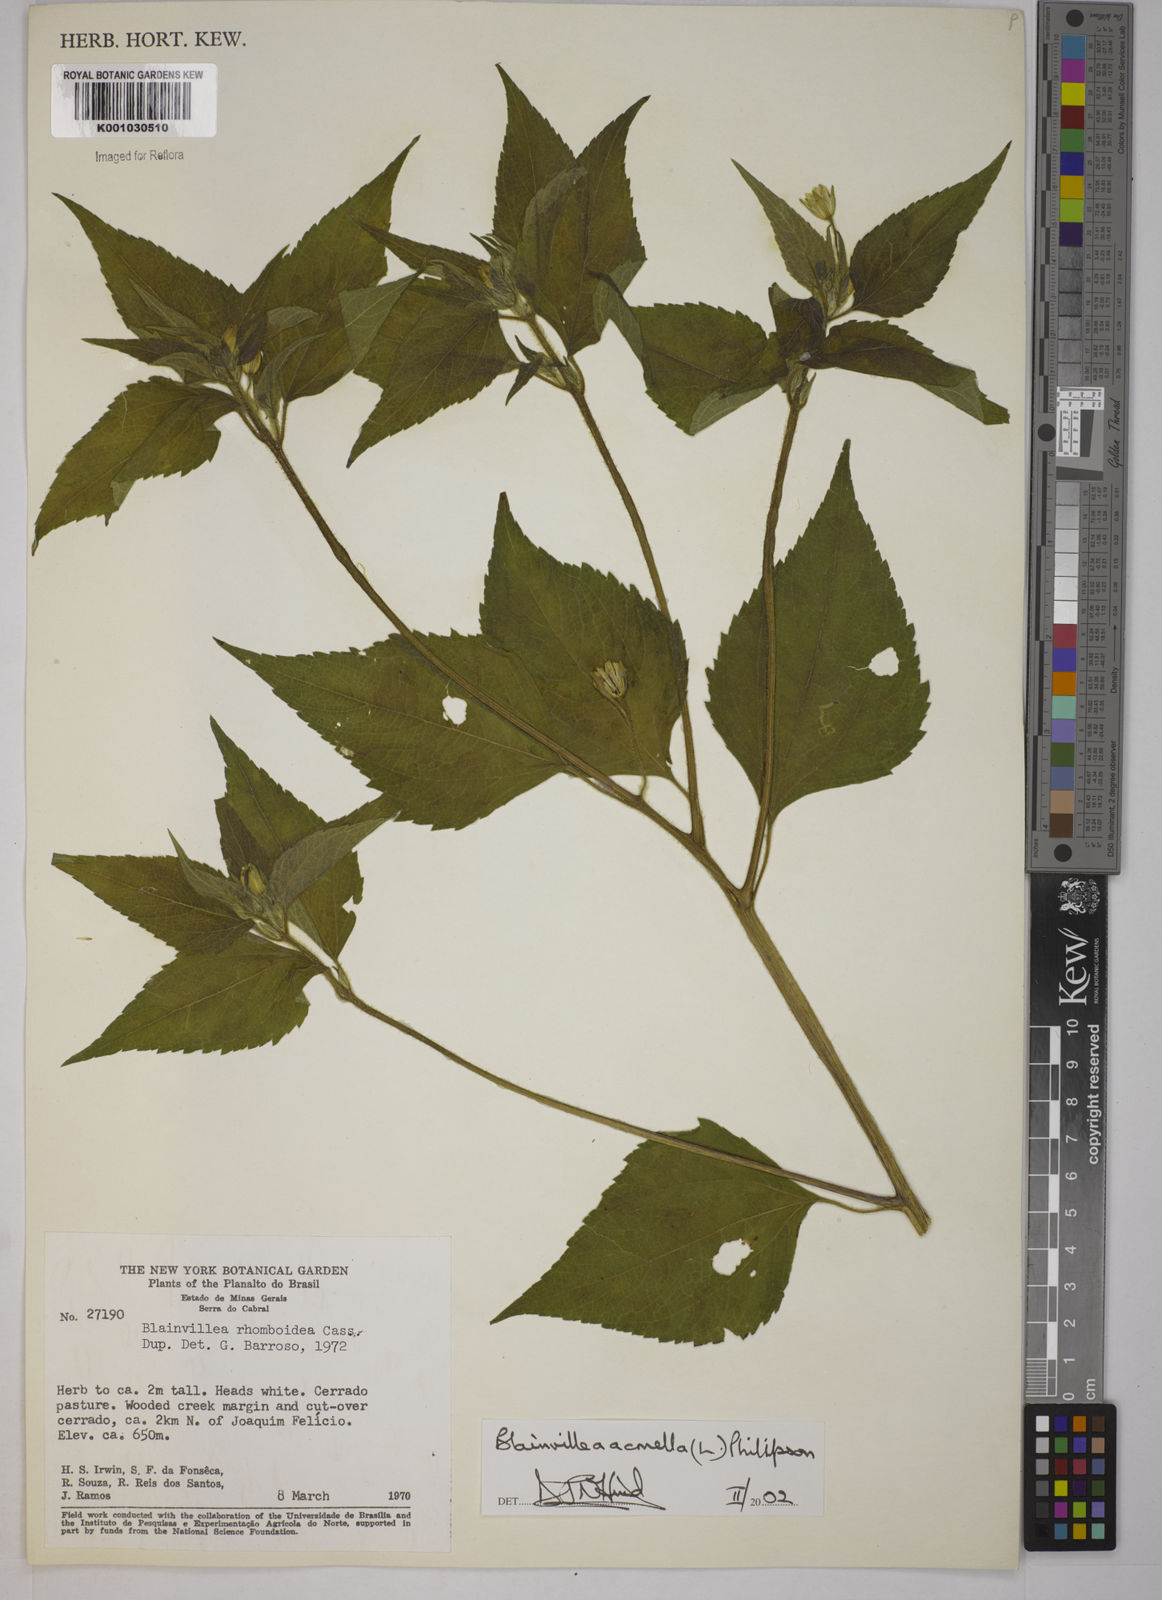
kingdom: Plantae
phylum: Tracheophyta
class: Magnoliopsida
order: Asterales
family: Asteraceae
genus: Blainvillea
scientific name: Blainvillea acmella
